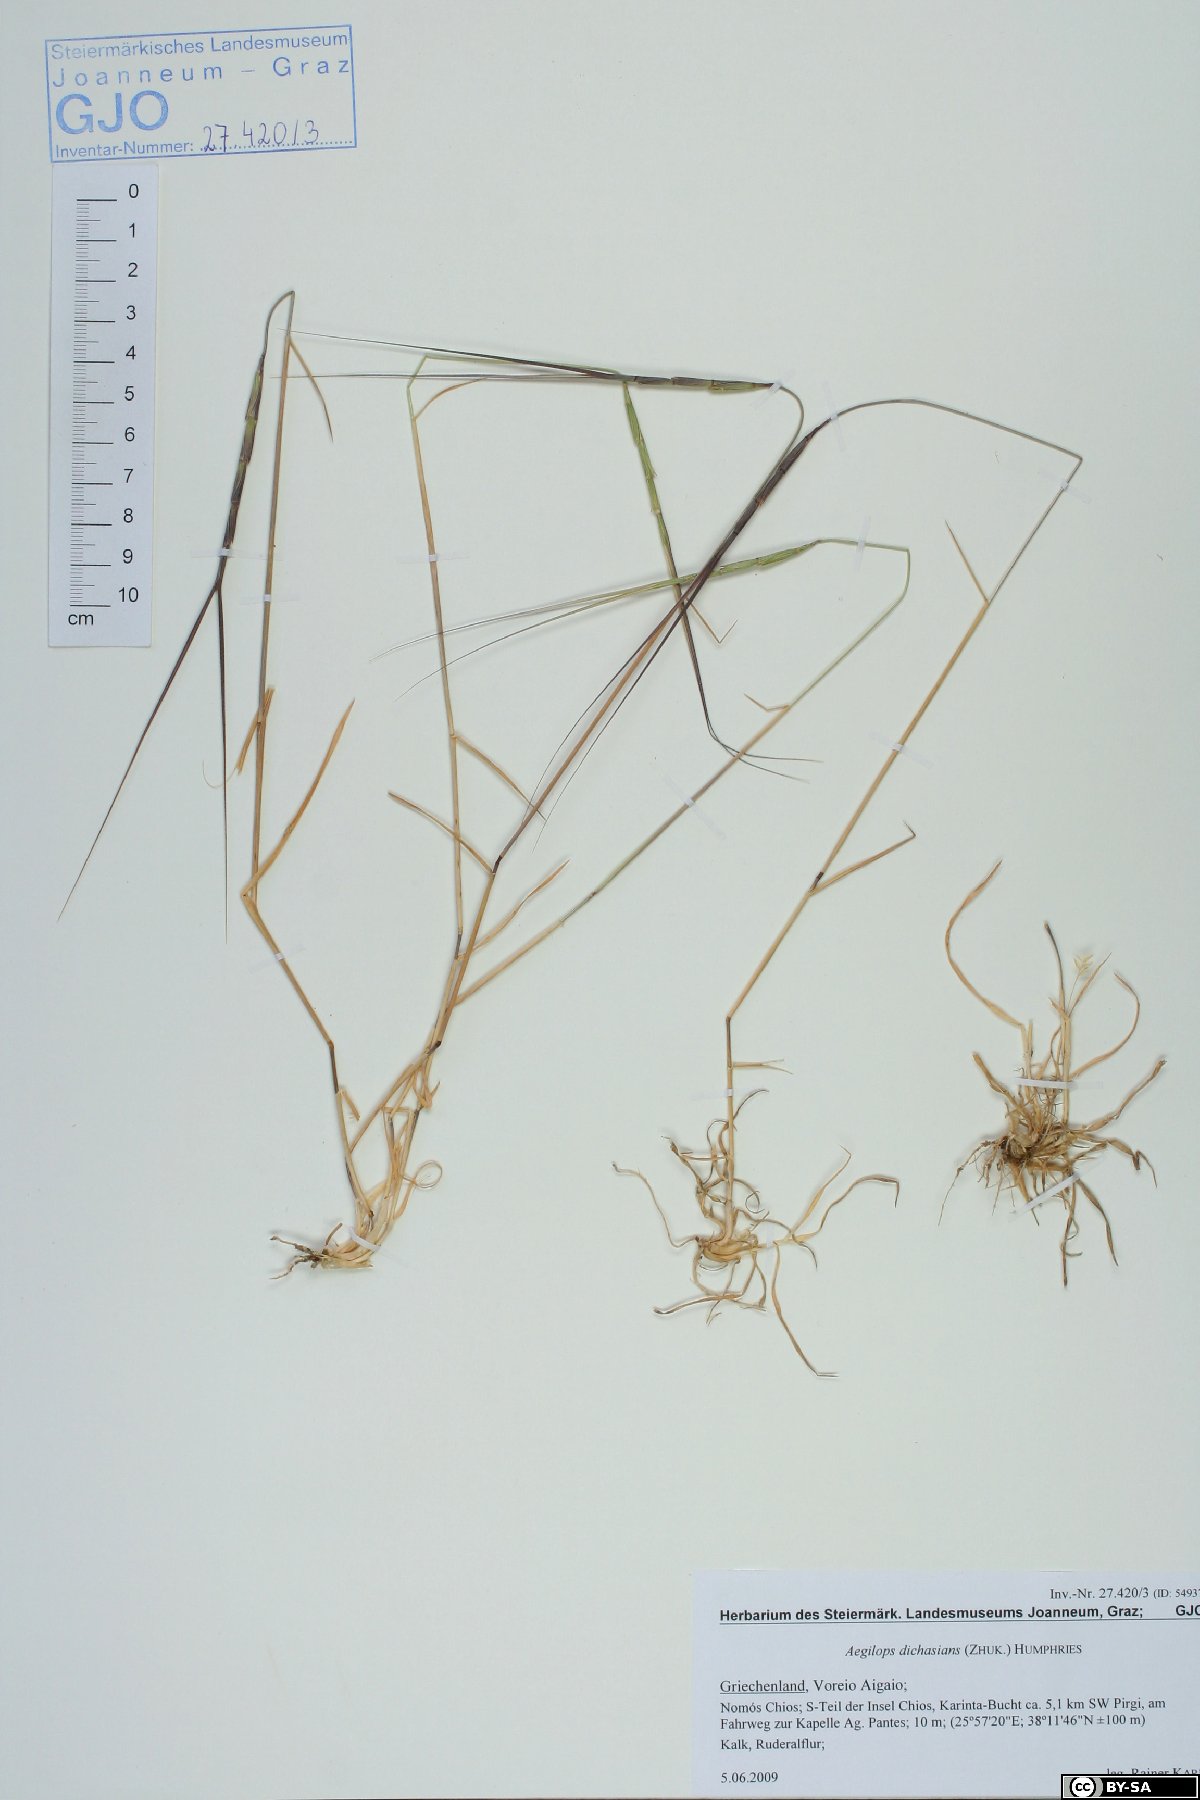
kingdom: Plantae
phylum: Tracheophyta
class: Liliopsida
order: Poales
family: Poaceae
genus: Aegilops
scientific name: Aegilops caudata
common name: Cretan hard-grass
